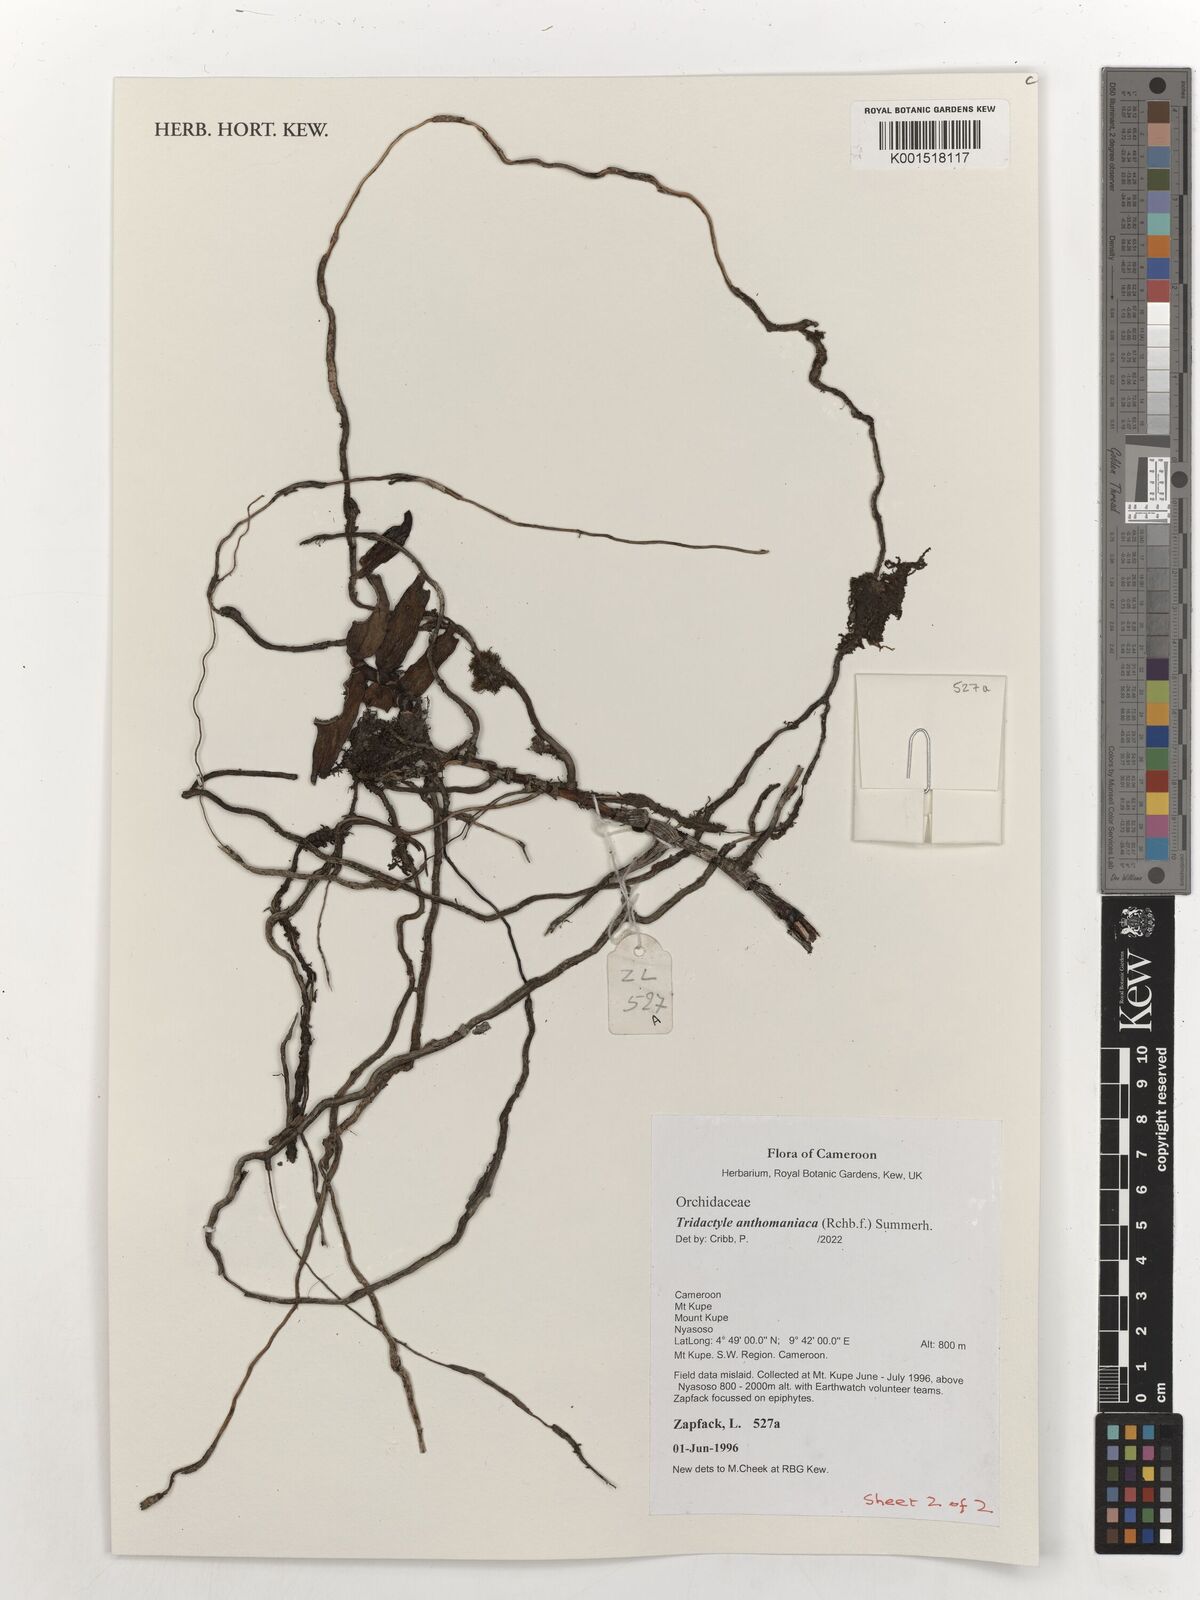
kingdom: Plantae
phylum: Tracheophyta
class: Liliopsida
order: Asparagales
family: Orchidaceae
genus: Tridactyle
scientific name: Tridactyle anthomaniaca
